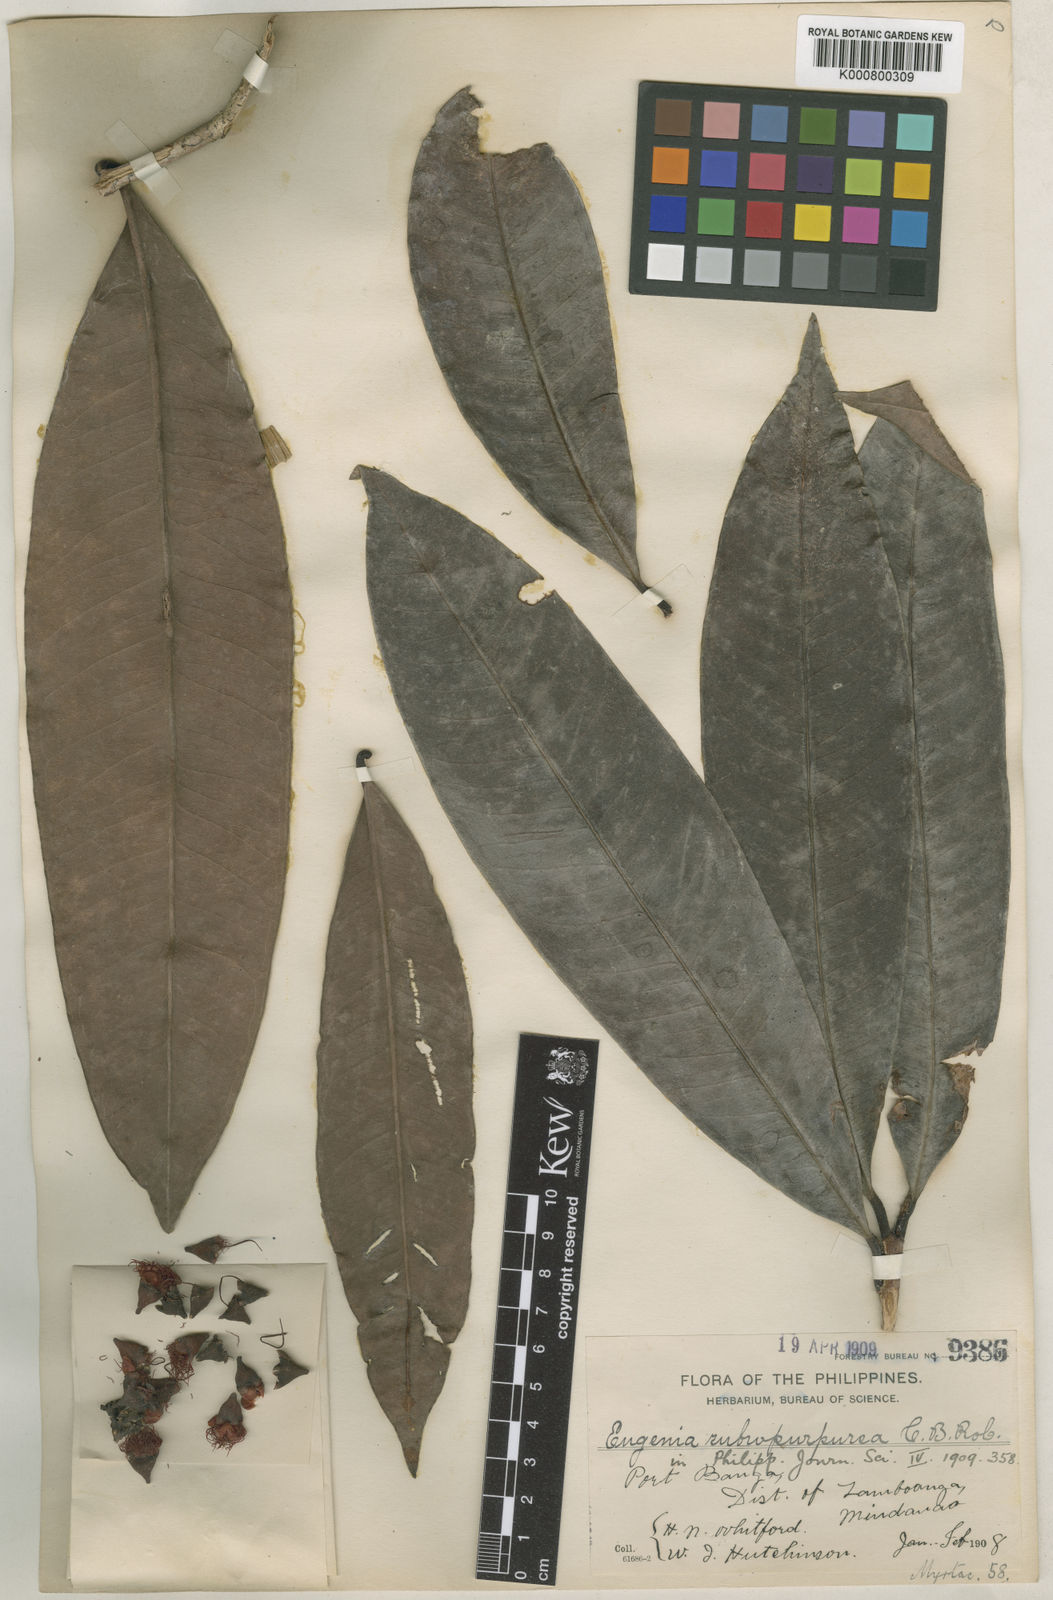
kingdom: Plantae
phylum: Tracheophyta
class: Magnoliopsida
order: Myrtales
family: Myrtaceae
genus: Syzygium
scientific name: Syzygium rubropurpureum
